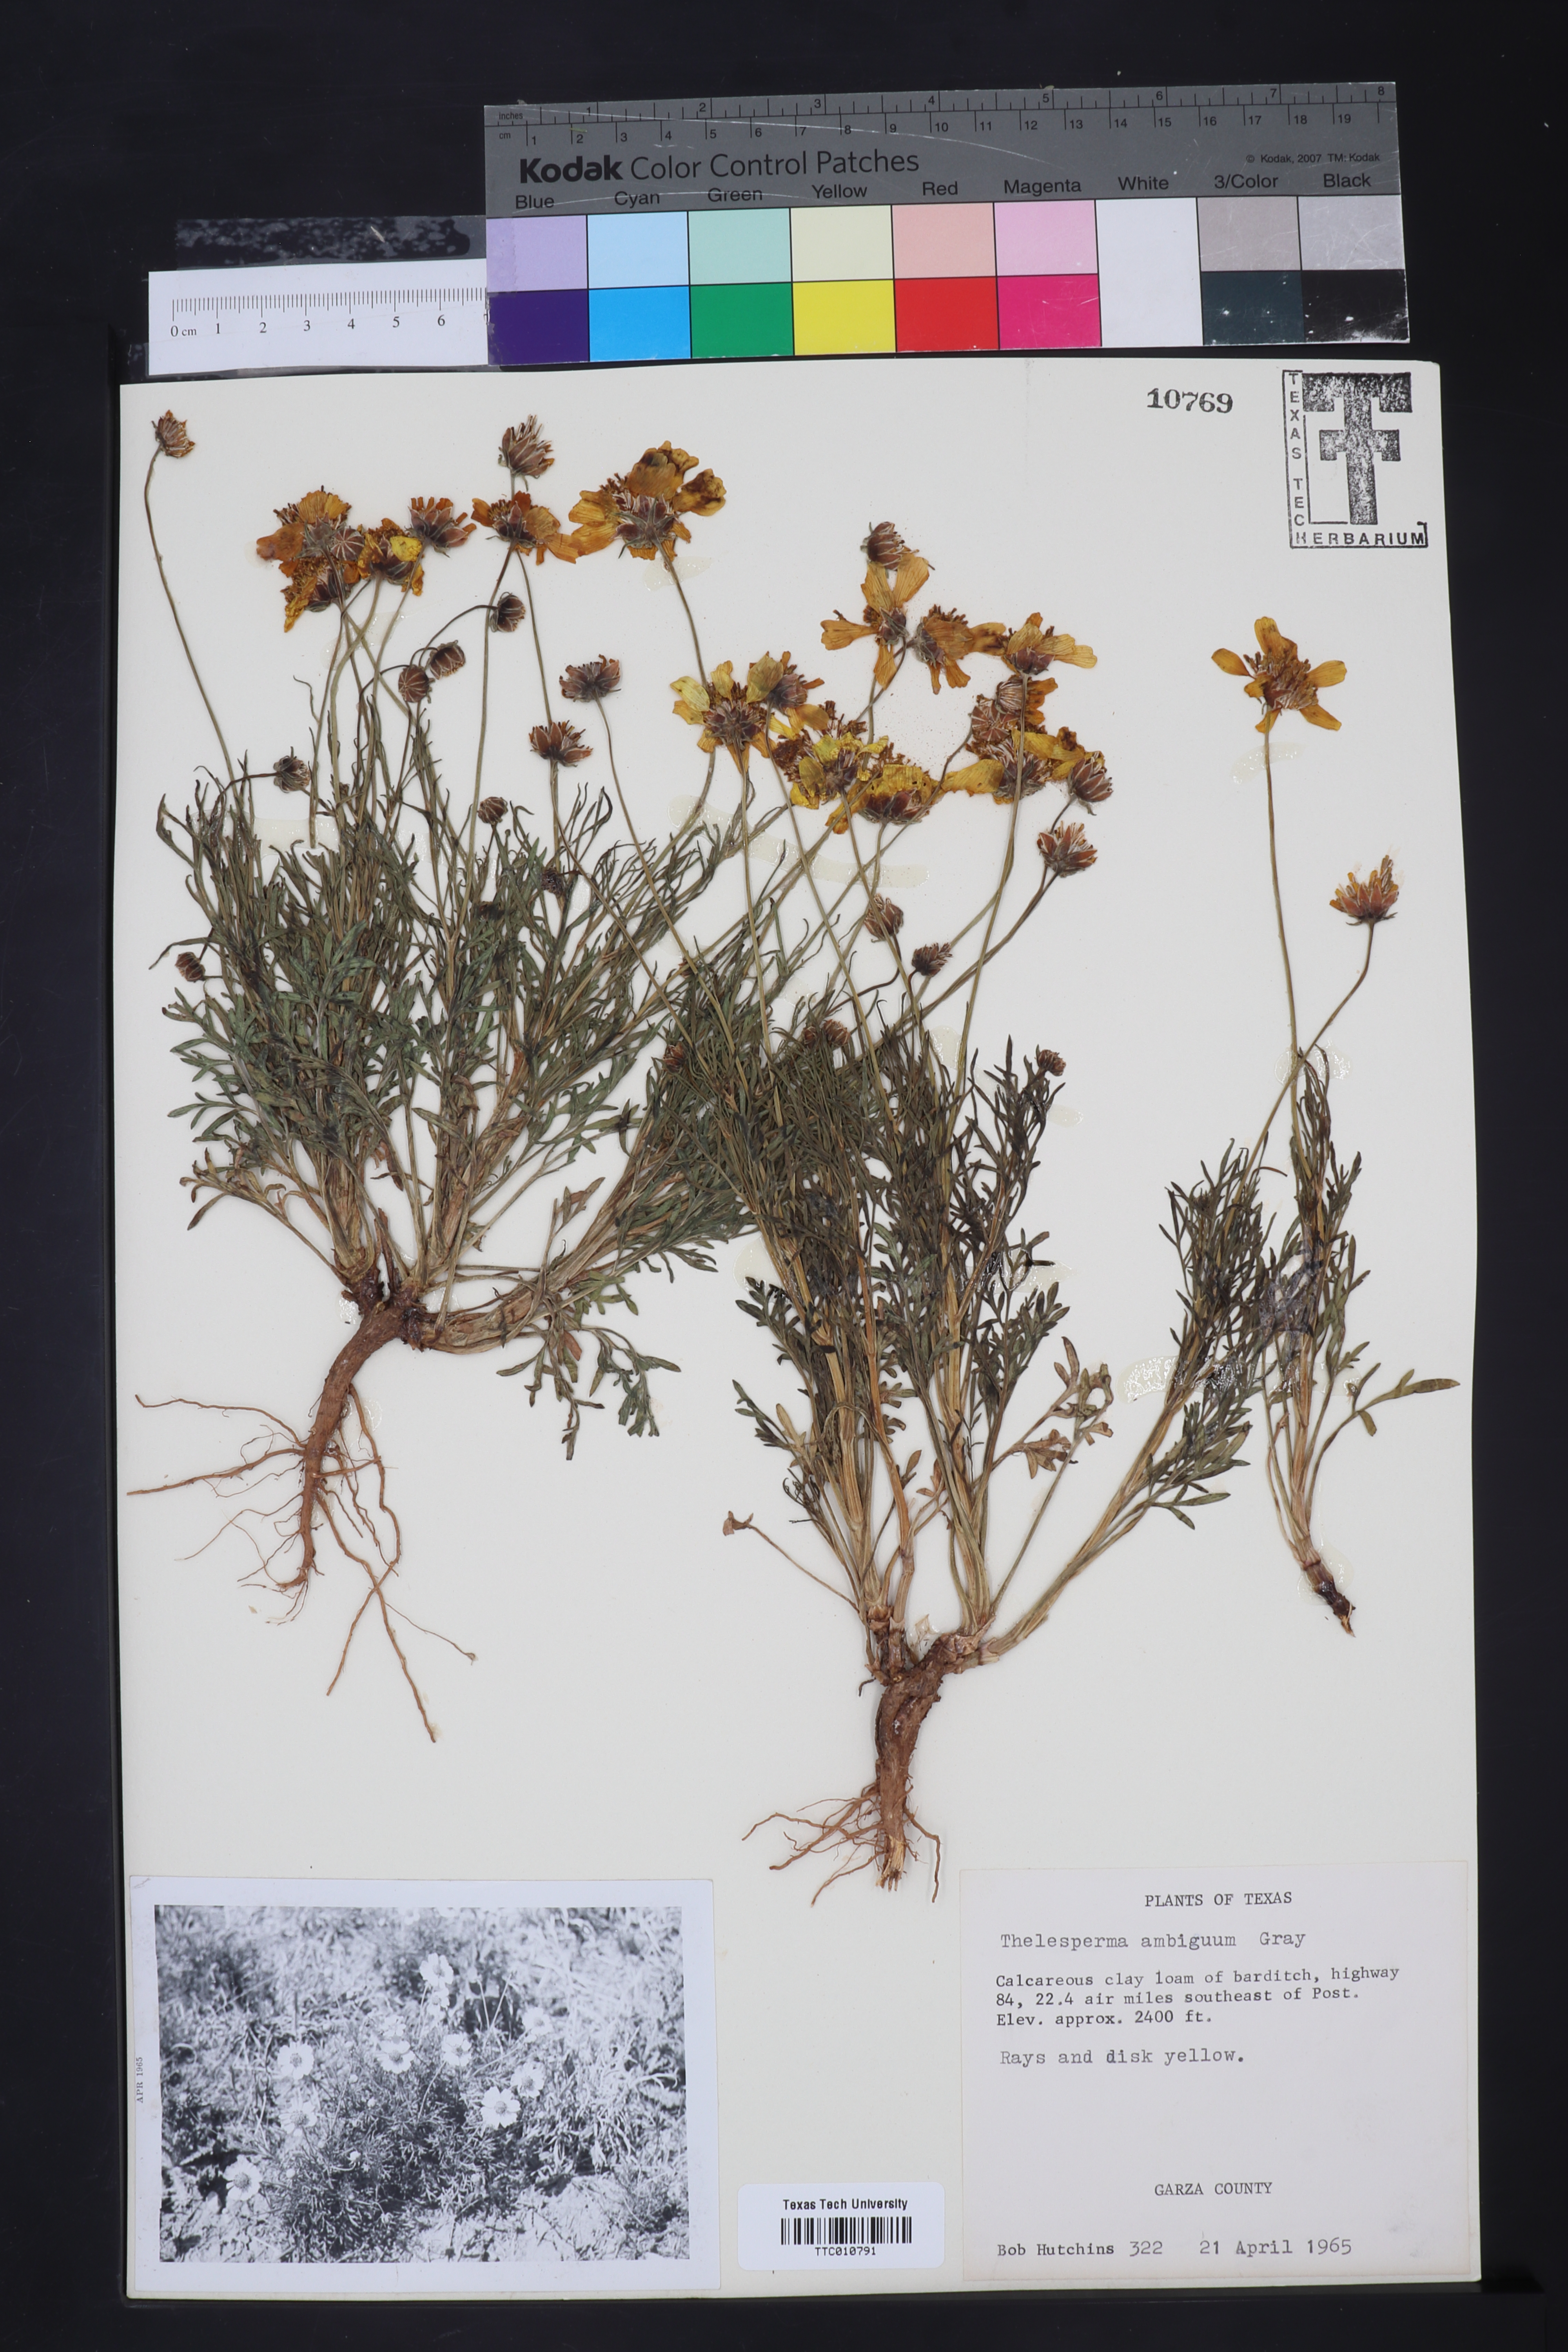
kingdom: Plantae
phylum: Tracheophyta
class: Magnoliopsida
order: Asterales
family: Asteraceae
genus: Thelesperma
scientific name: Thelesperma ambiguum
